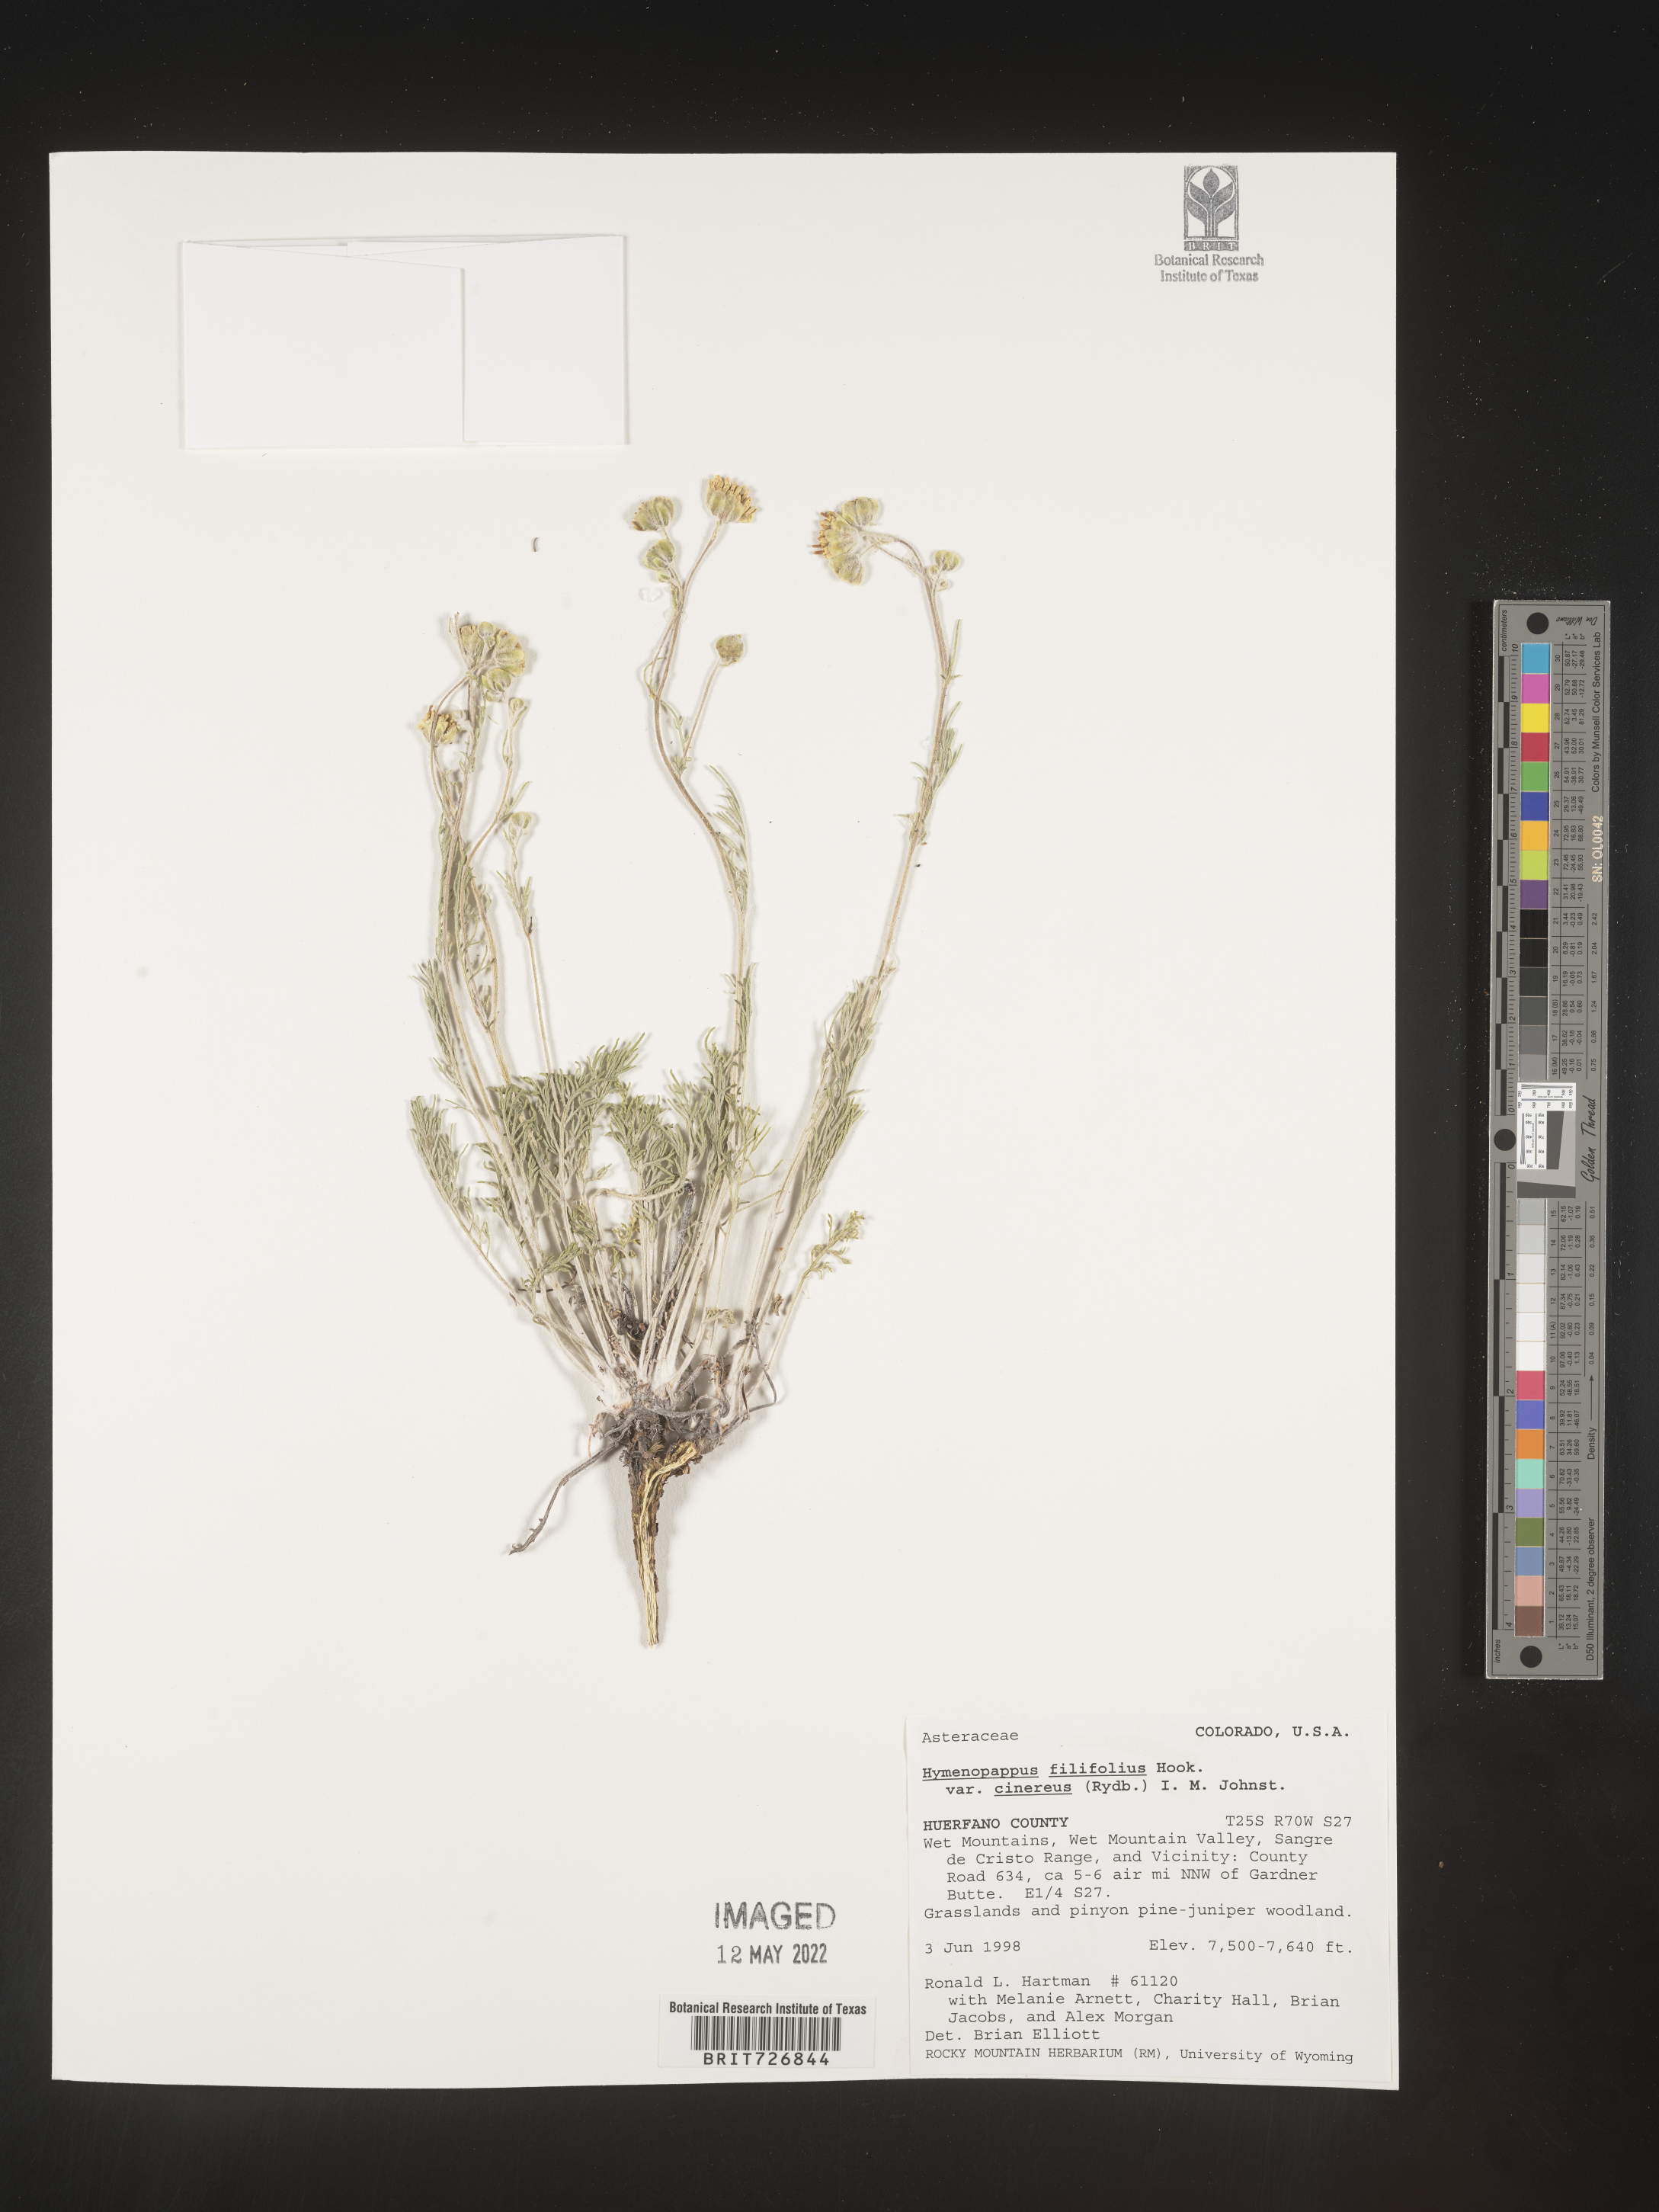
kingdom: Plantae
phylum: Tracheophyta
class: Magnoliopsida
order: Asterales
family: Asteraceae
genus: Hymenopappus
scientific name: Hymenopappus filifolius
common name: Columbia cutleaf
